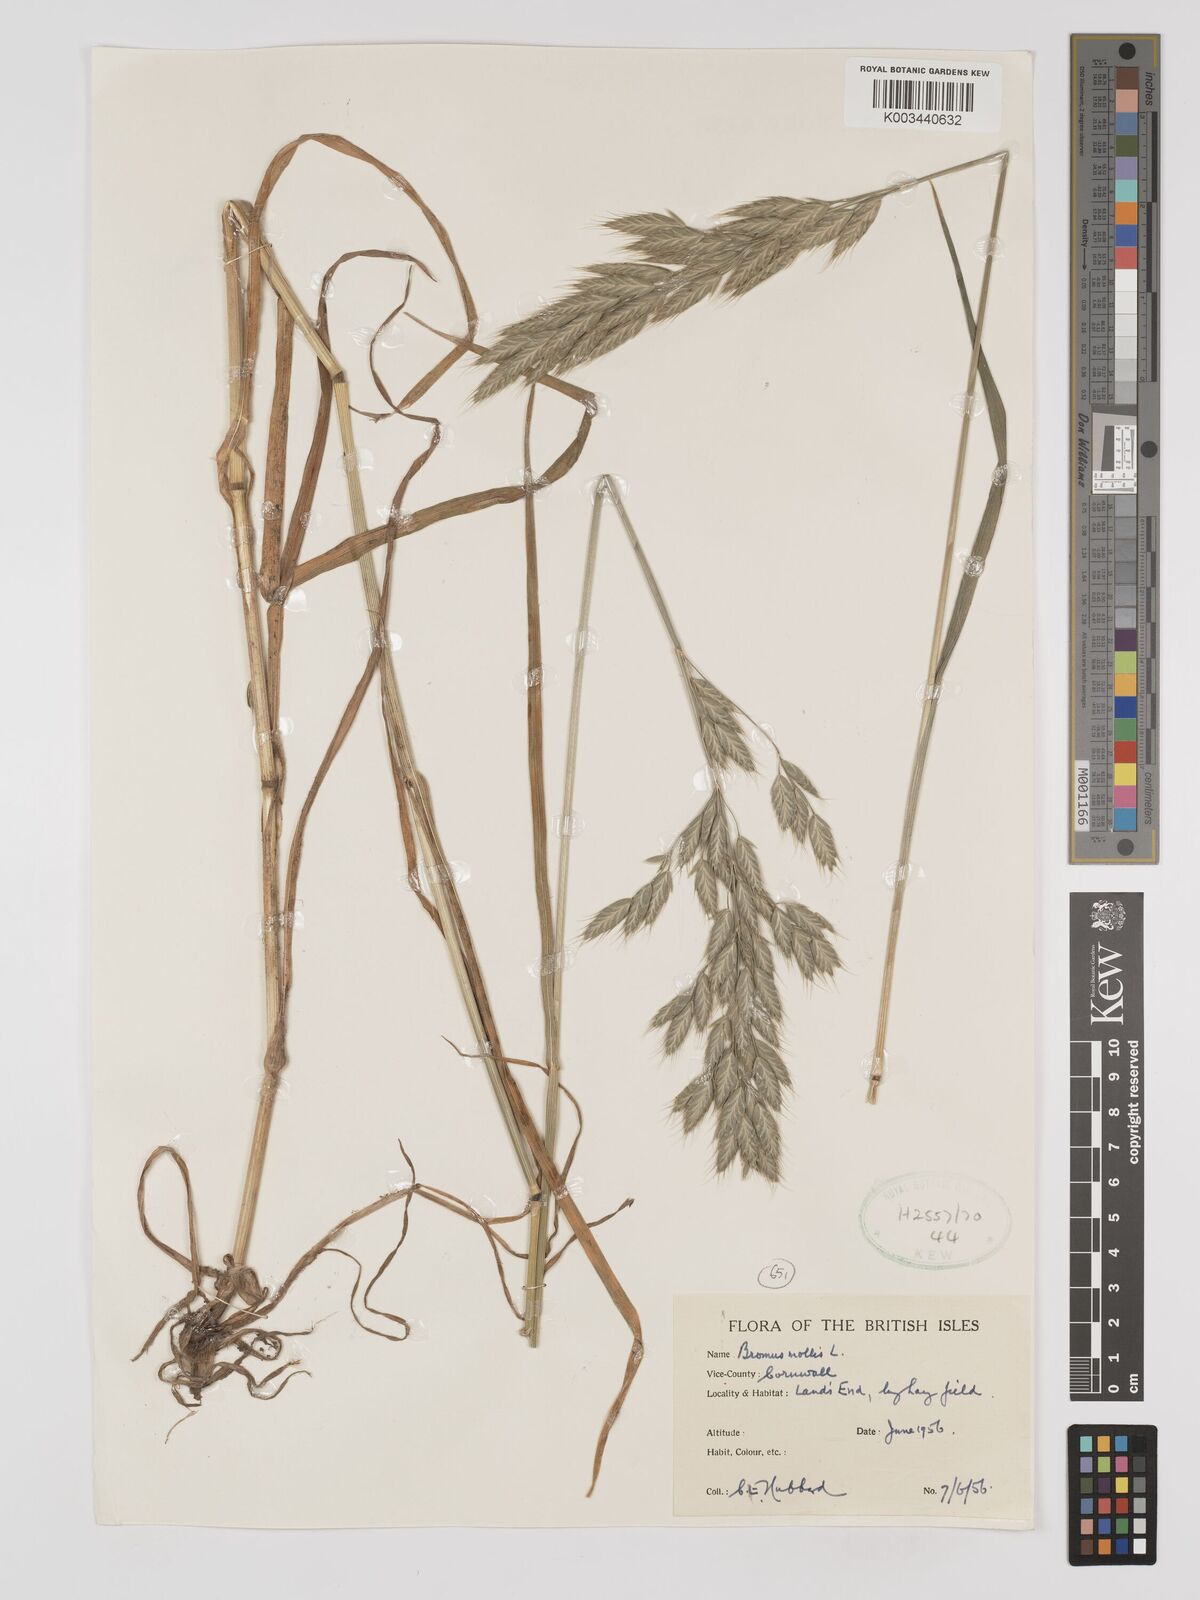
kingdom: Plantae
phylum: Tracheophyta
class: Liliopsida
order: Poales
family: Poaceae
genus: Bromus
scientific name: Bromus hordeaceus
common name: Soft brome
